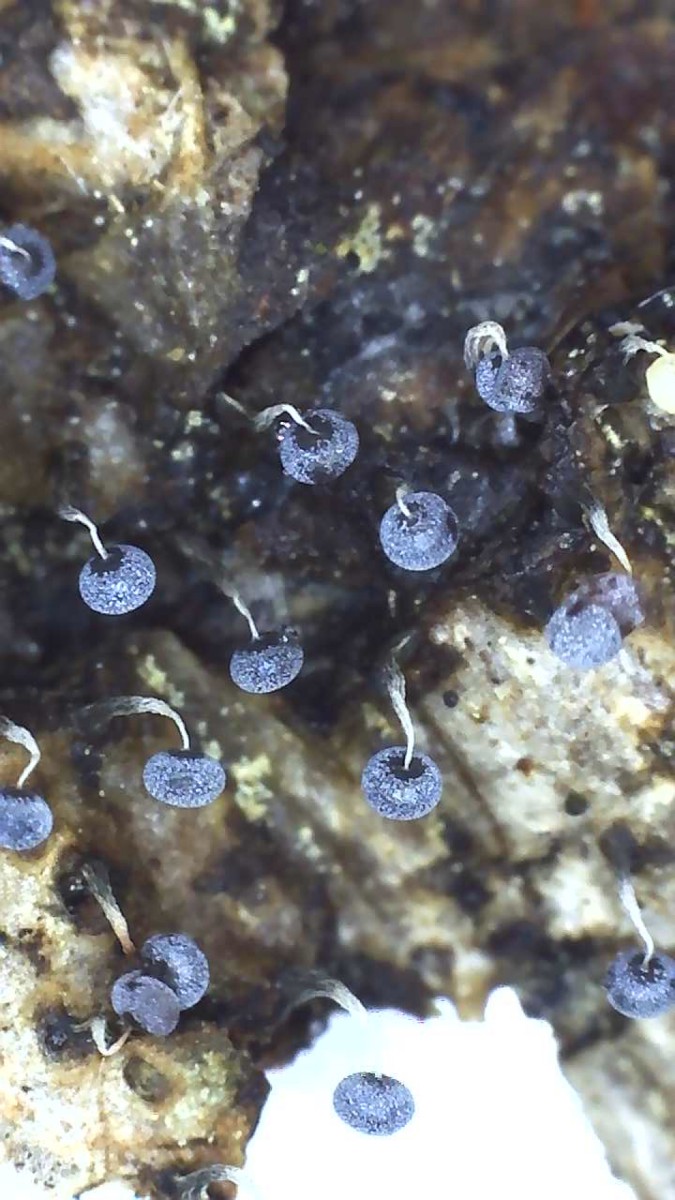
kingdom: Protozoa
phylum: Mycetozoa
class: Myxomycetes
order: Physarales
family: Physaraceae
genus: Physarum
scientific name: Physarum album
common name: nikkende støvknop
